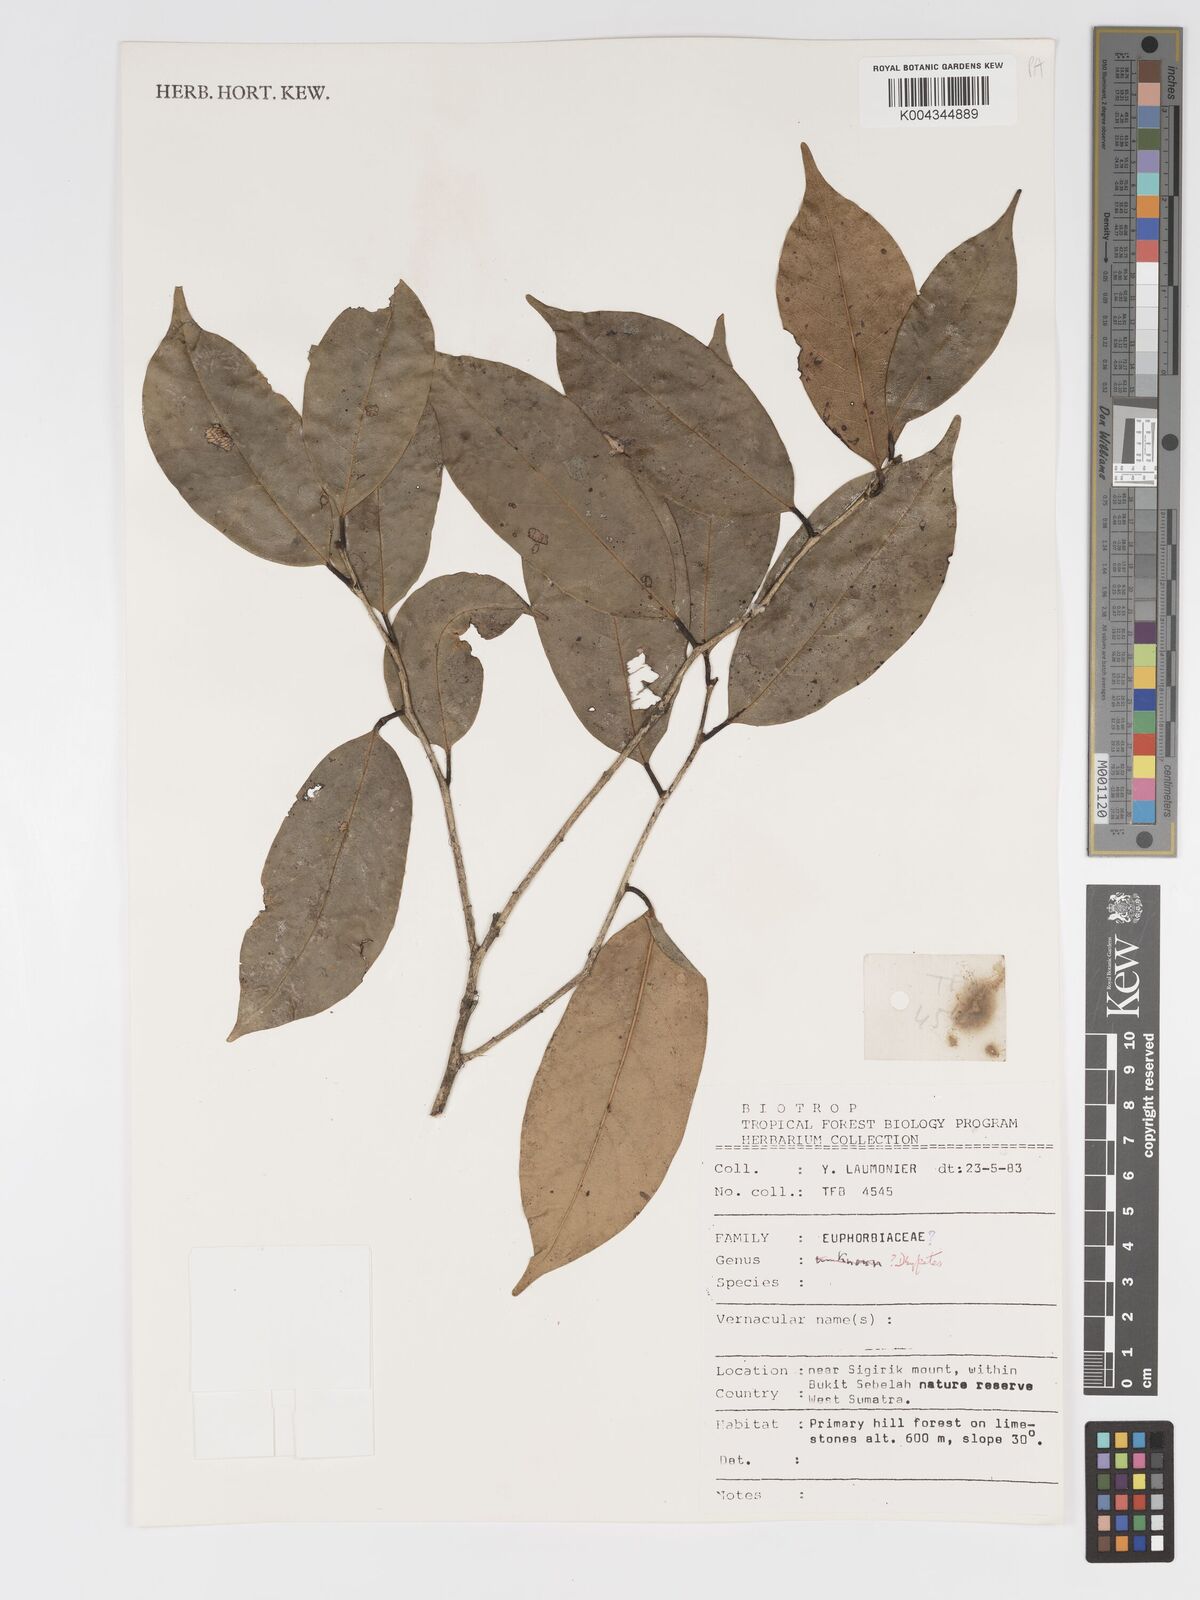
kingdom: Plantae
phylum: Tracheophyta
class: Magnoliopsida
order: Malpighiales
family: Putranjivaceae
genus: Drypetes
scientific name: Drypetes
